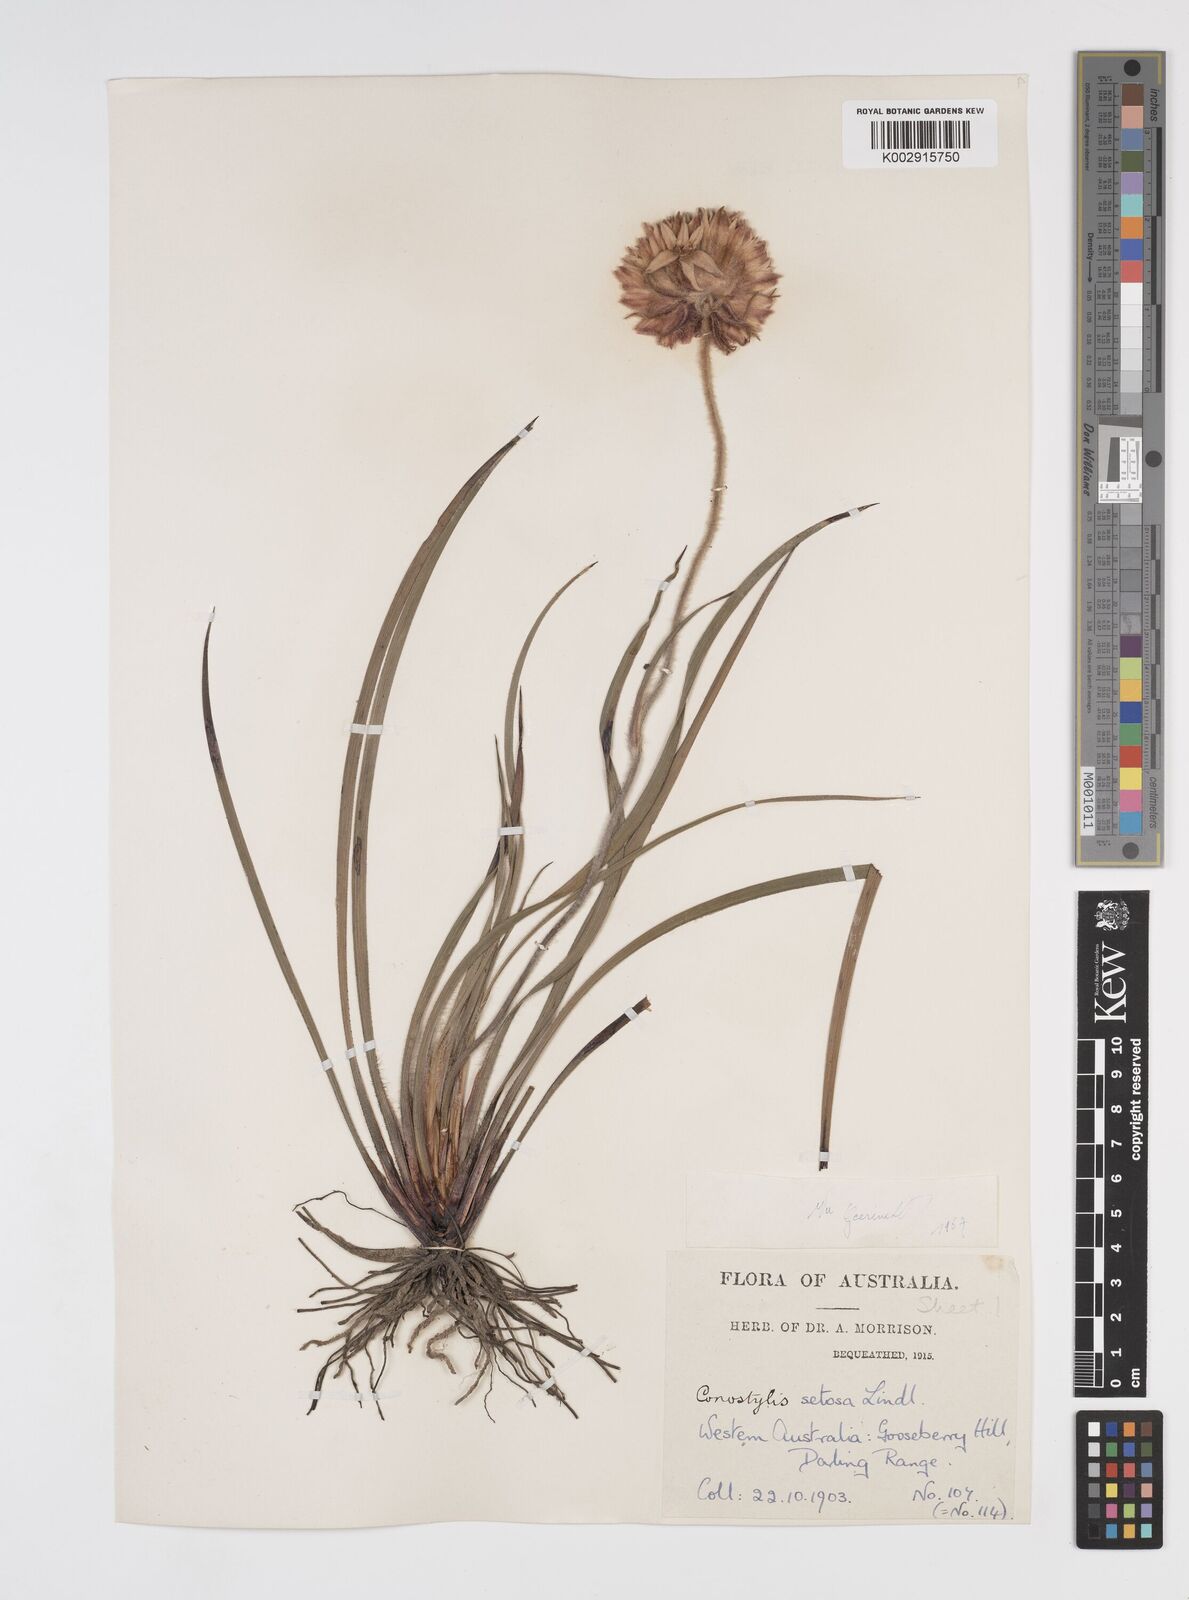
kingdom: Plantae
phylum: Tracheophyta
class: Liliopsida
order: Commelinales
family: Haemodoraceae
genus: Conostylis
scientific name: Conostylis setosa
